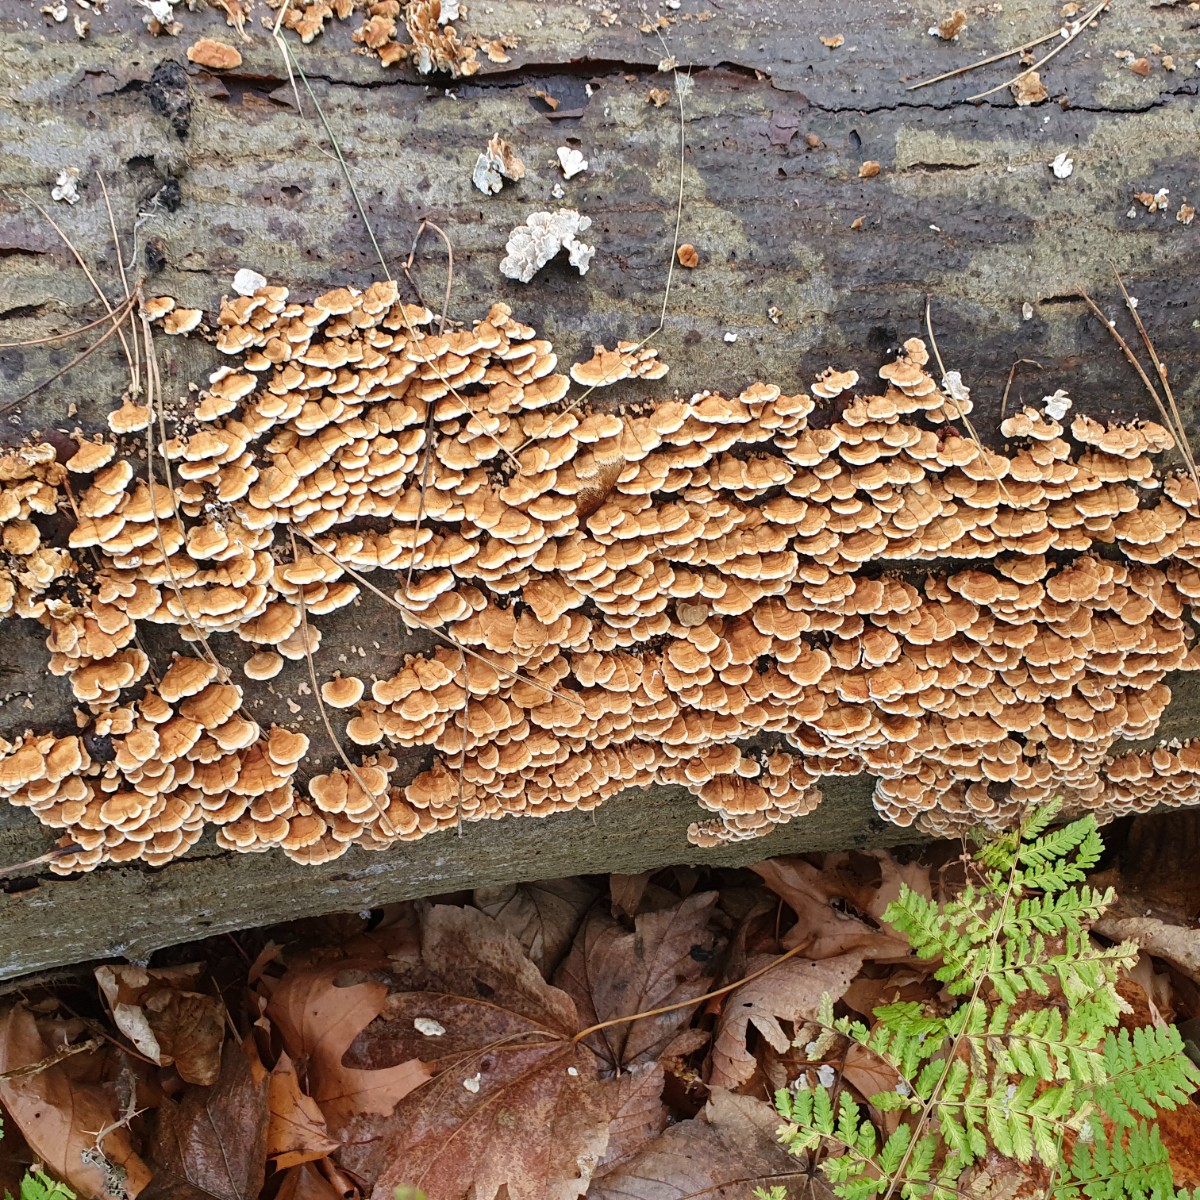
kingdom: Fungi
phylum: Basidiomycota
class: Agaricomycetes
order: Amylocorticiales
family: Amylocorticiaceae
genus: Plicaturopsis
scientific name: Plicaturopsis crispa
